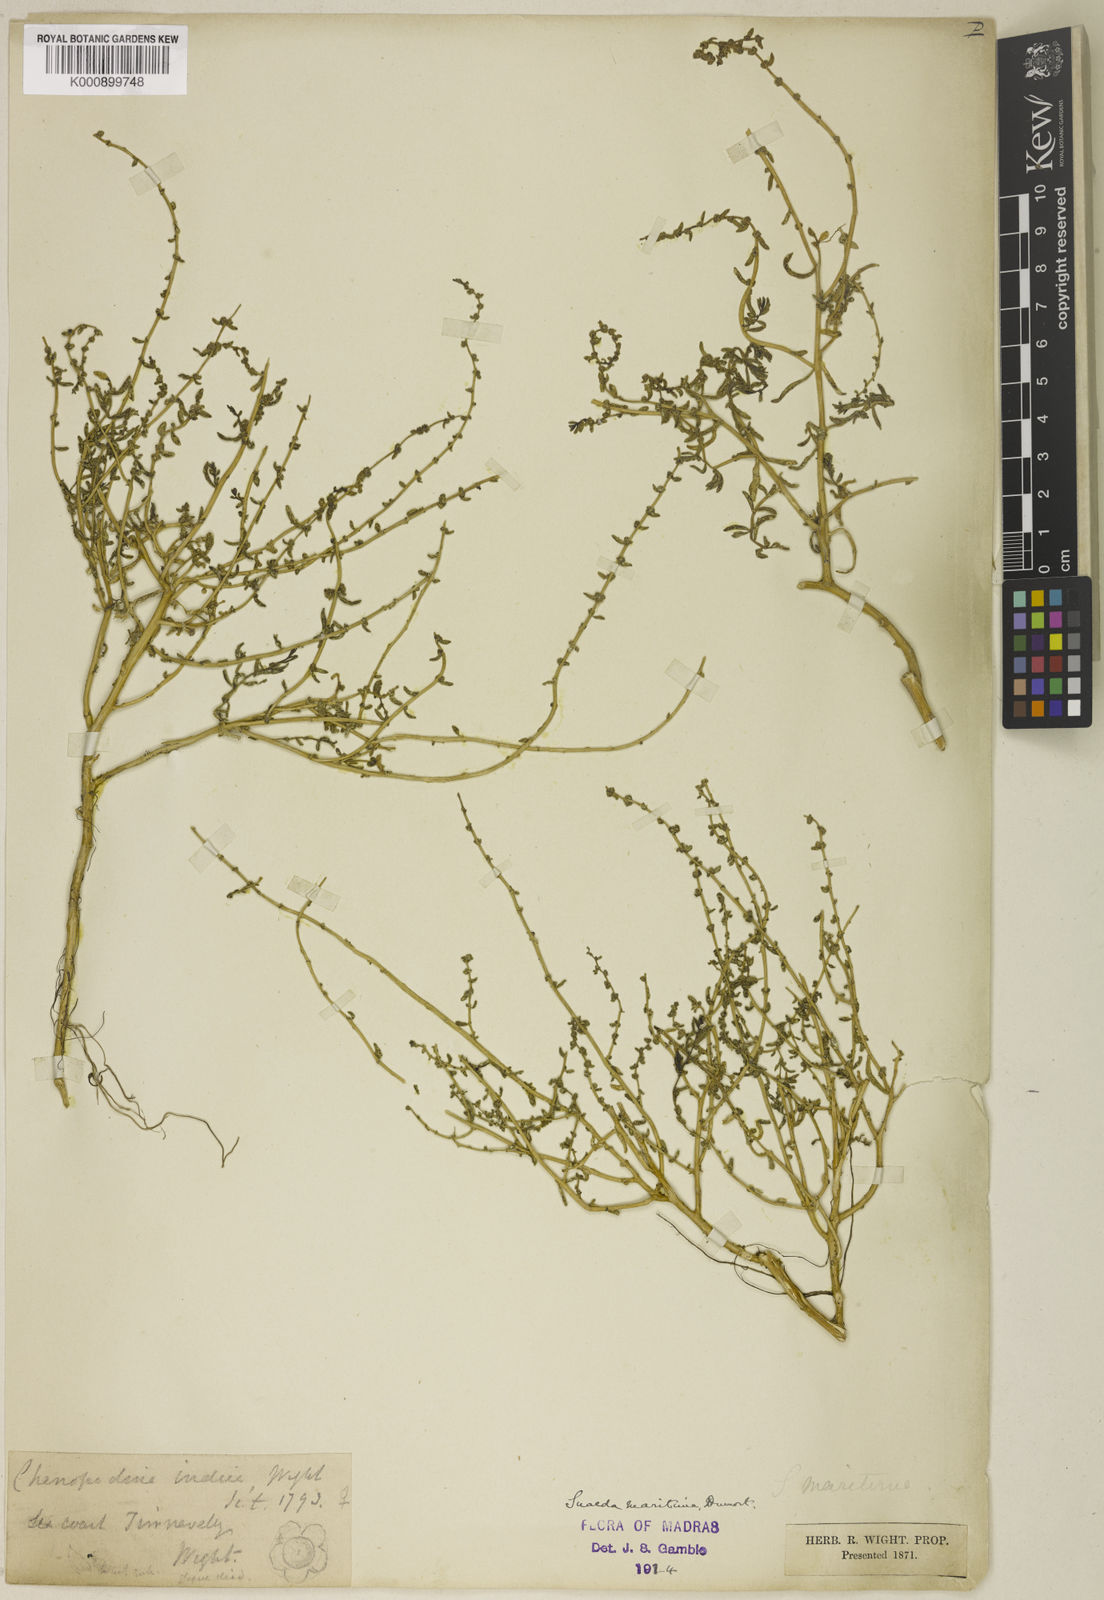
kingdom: Plantae
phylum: Tracheophyta
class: Magnoliopsida
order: Caryophyllales
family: Amaranthaceae
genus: Suaeda
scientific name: Suaeda maritima
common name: Annual sea-blite
